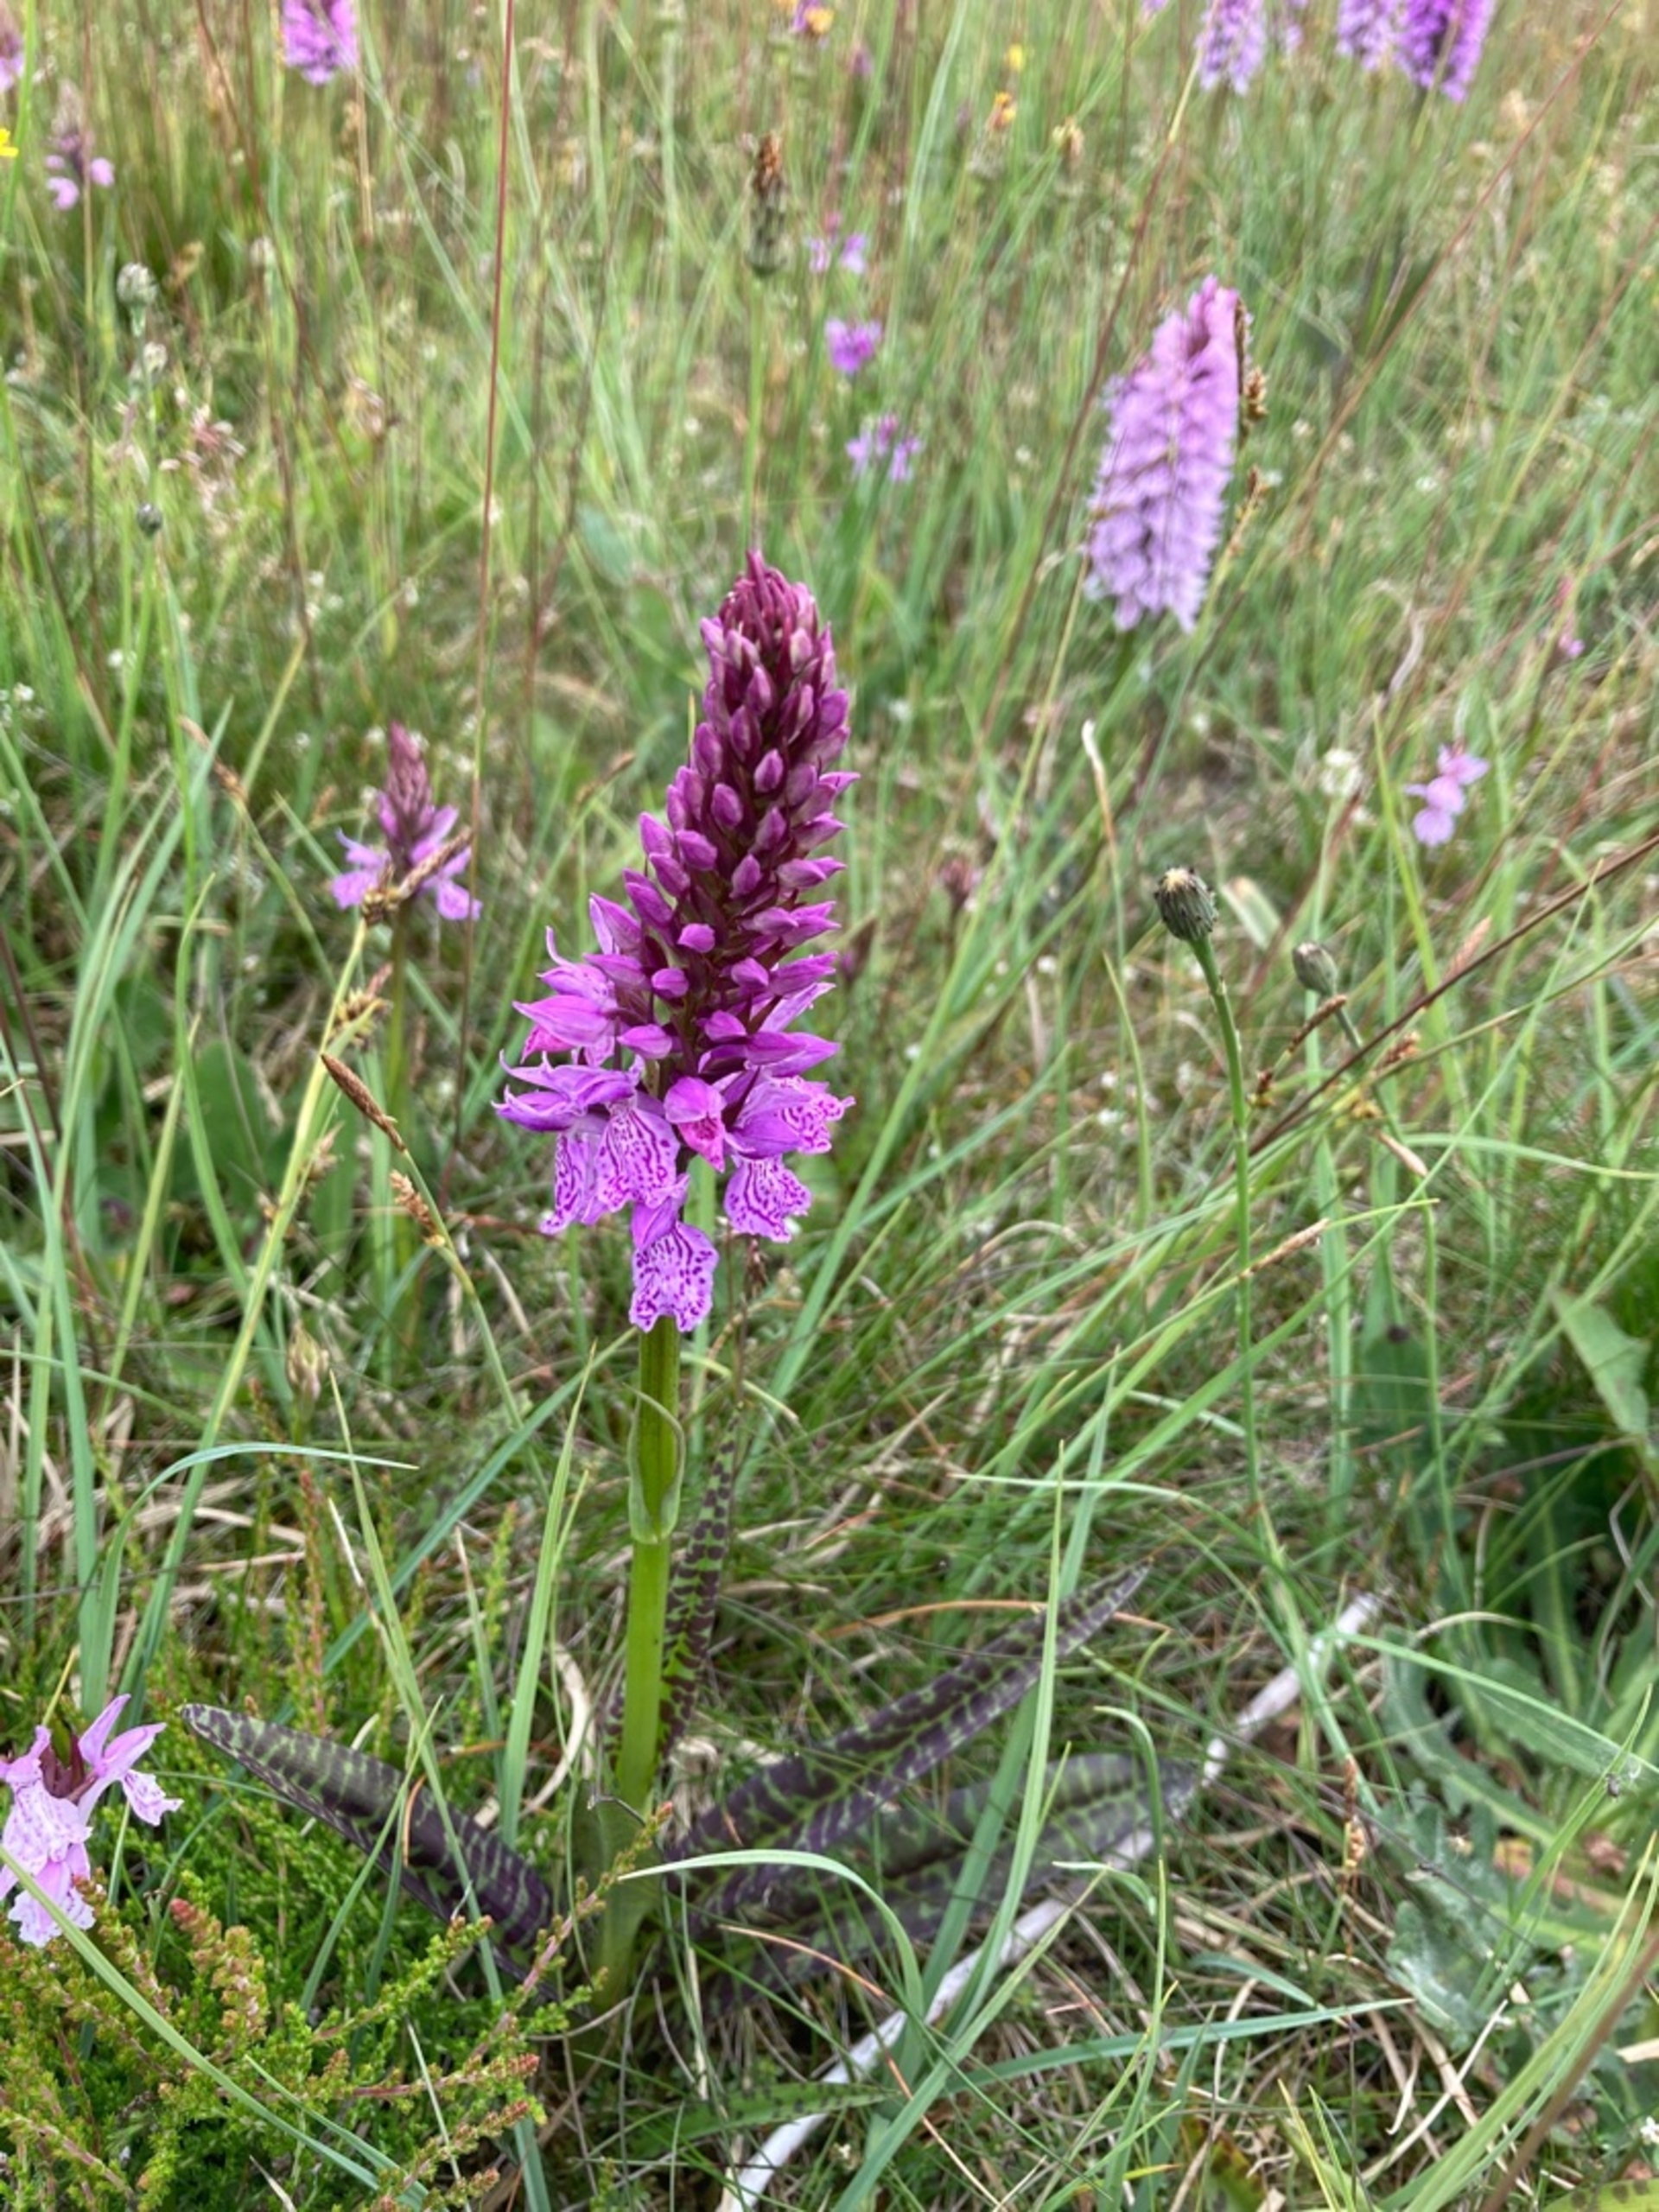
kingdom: Plantae
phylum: Tracheophyta
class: Liliopsida
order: Asparagales
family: Orchidaceae
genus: Dactylorhiza
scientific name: Dactylorhiza maculata
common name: Plettet gøgeurt
